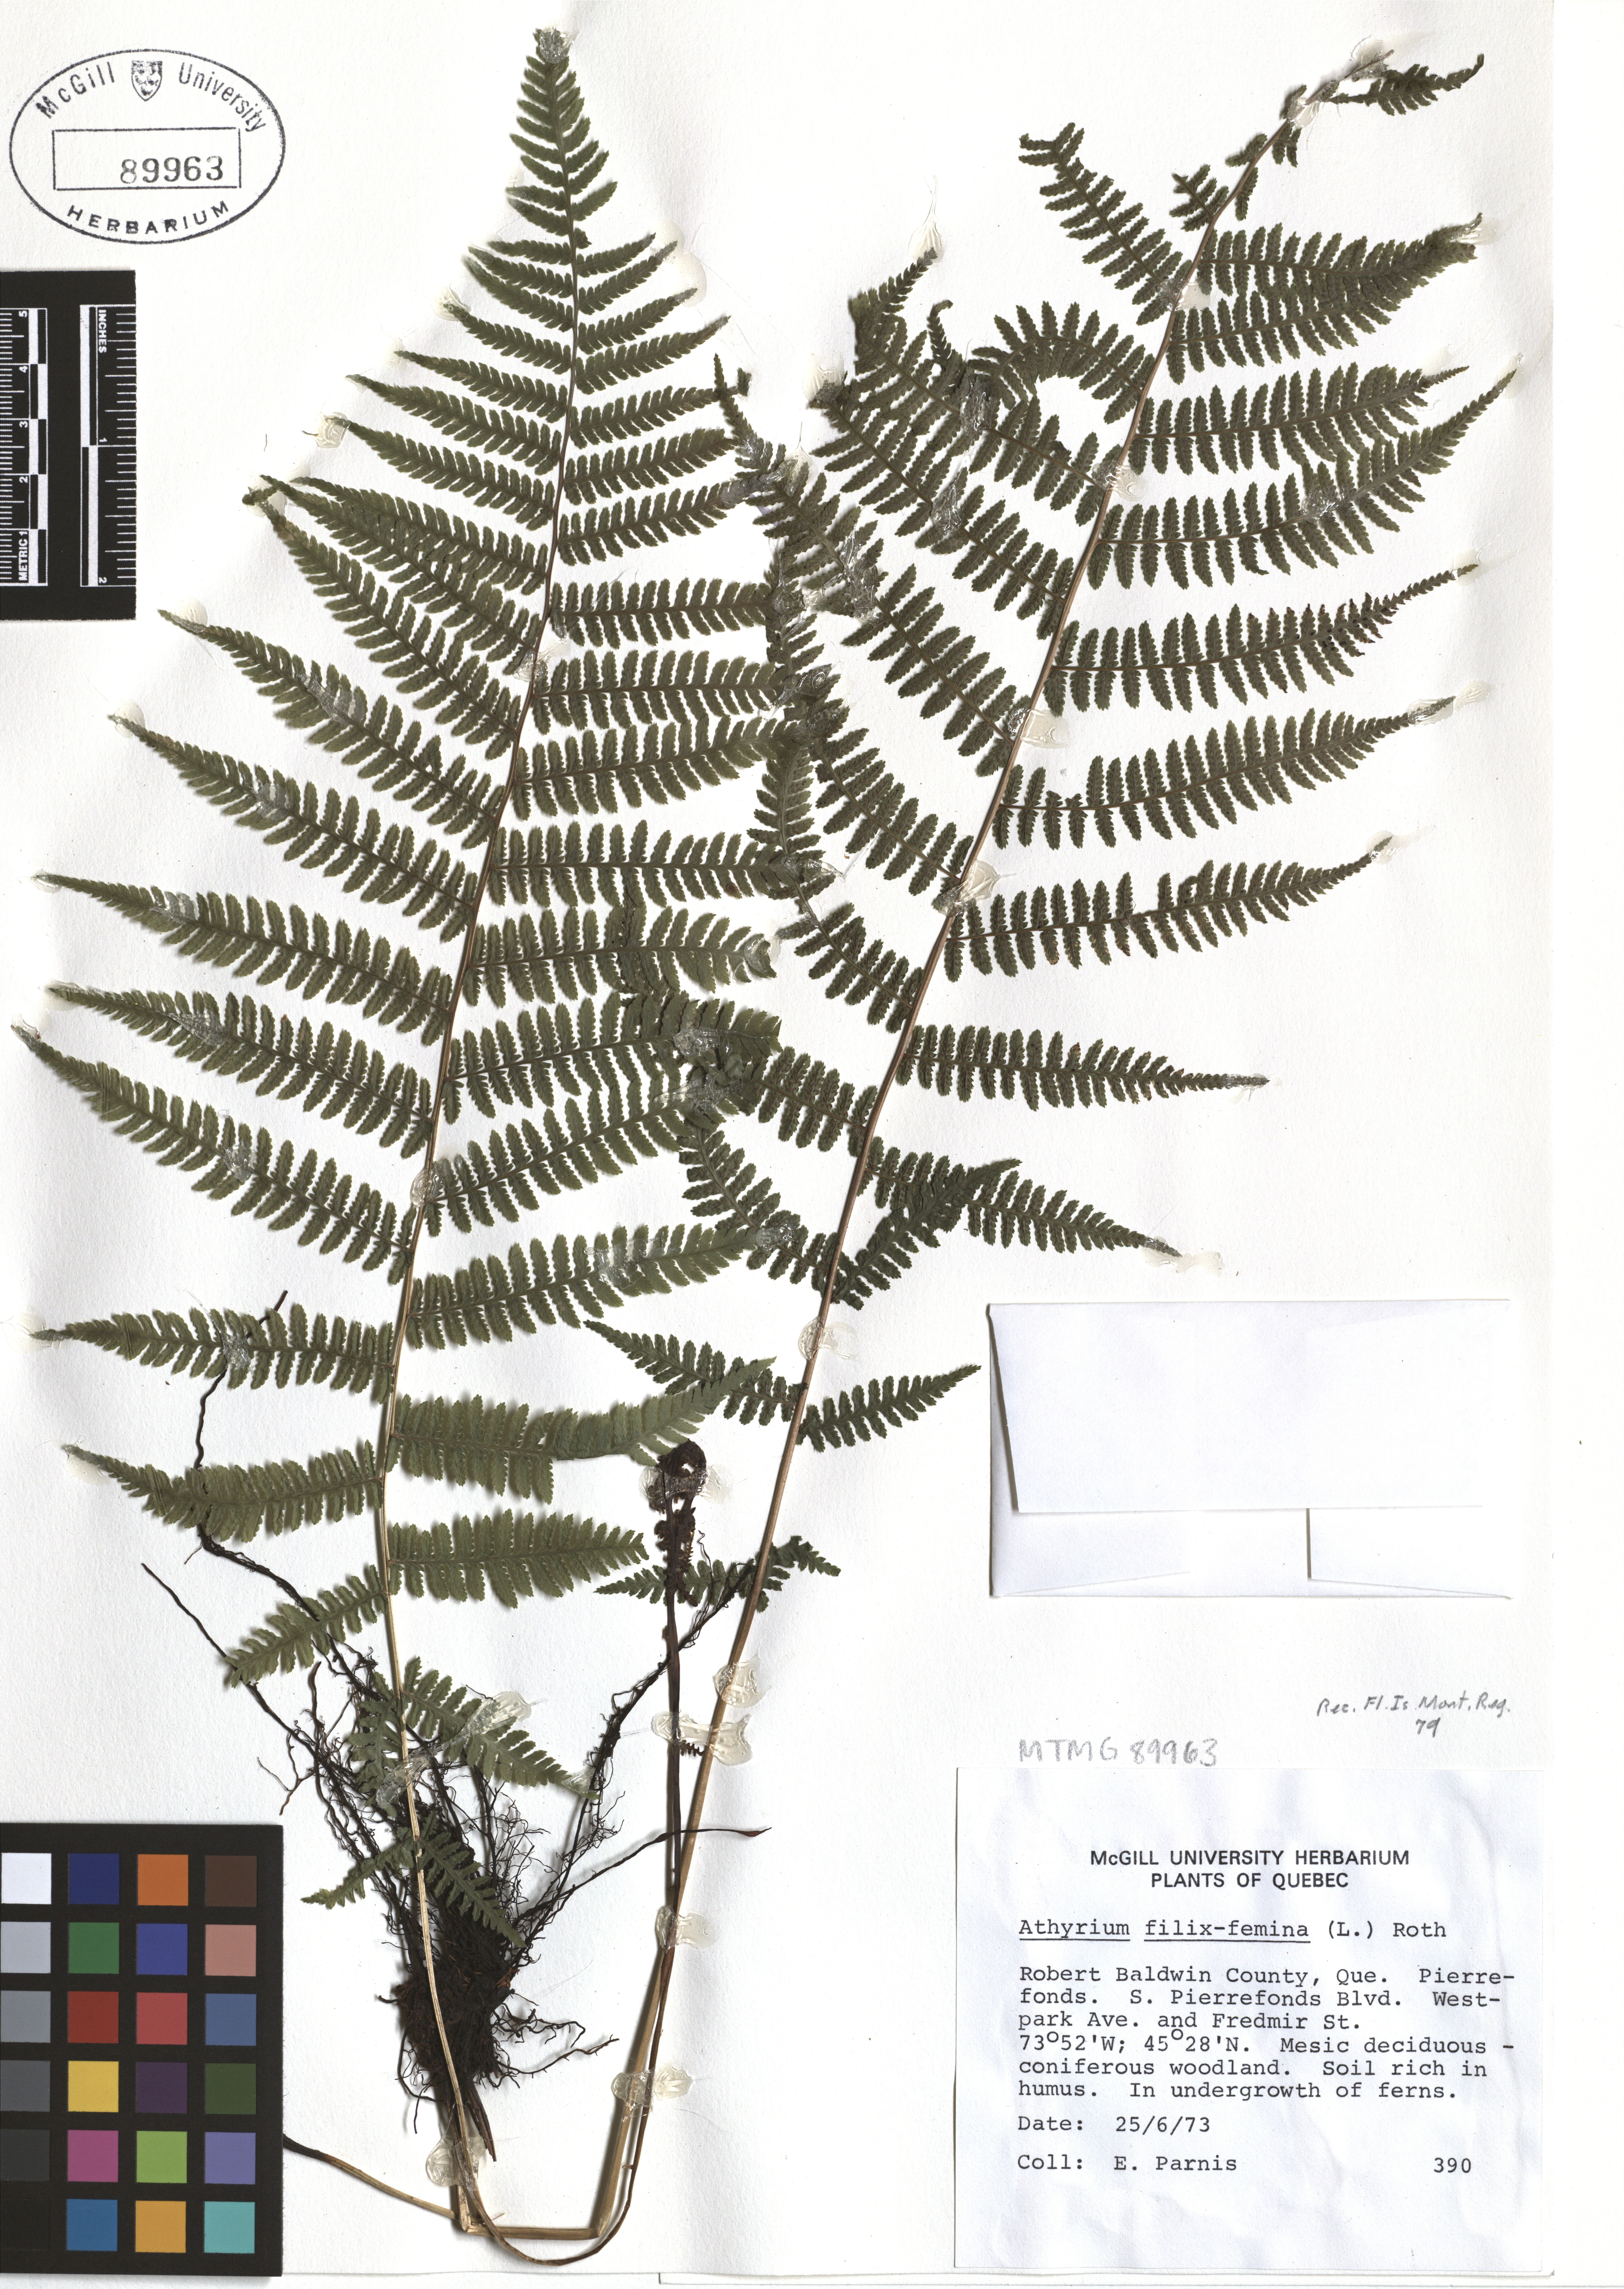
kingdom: Plantae
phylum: Tracheophyta
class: Polypodiopsida
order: Polypodiales
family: Athyriaceae
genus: Athyrium
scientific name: Athyrium filix-femina
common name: Lady fern
